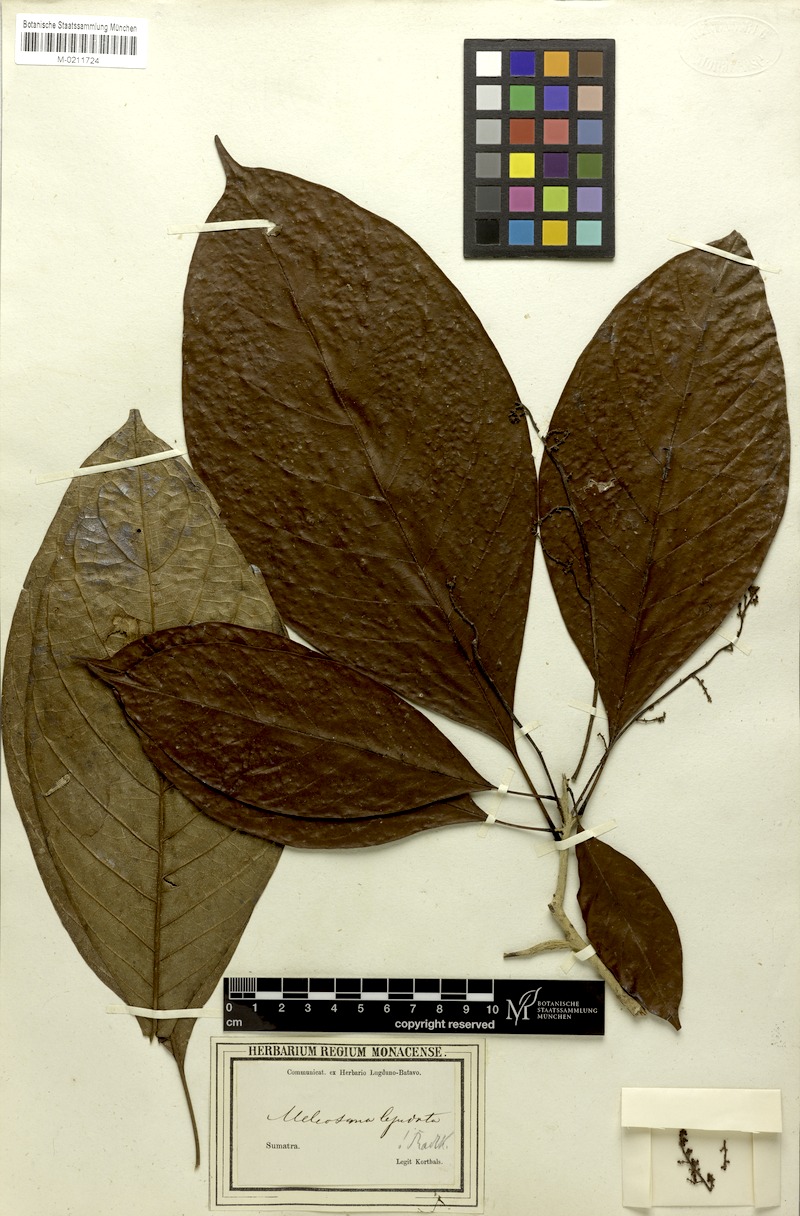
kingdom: Plantae
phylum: Tracheophyta
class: Magnoliopsida
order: Proteales
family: Sabiaceae
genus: Meliosma
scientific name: Meliosma lepidota
